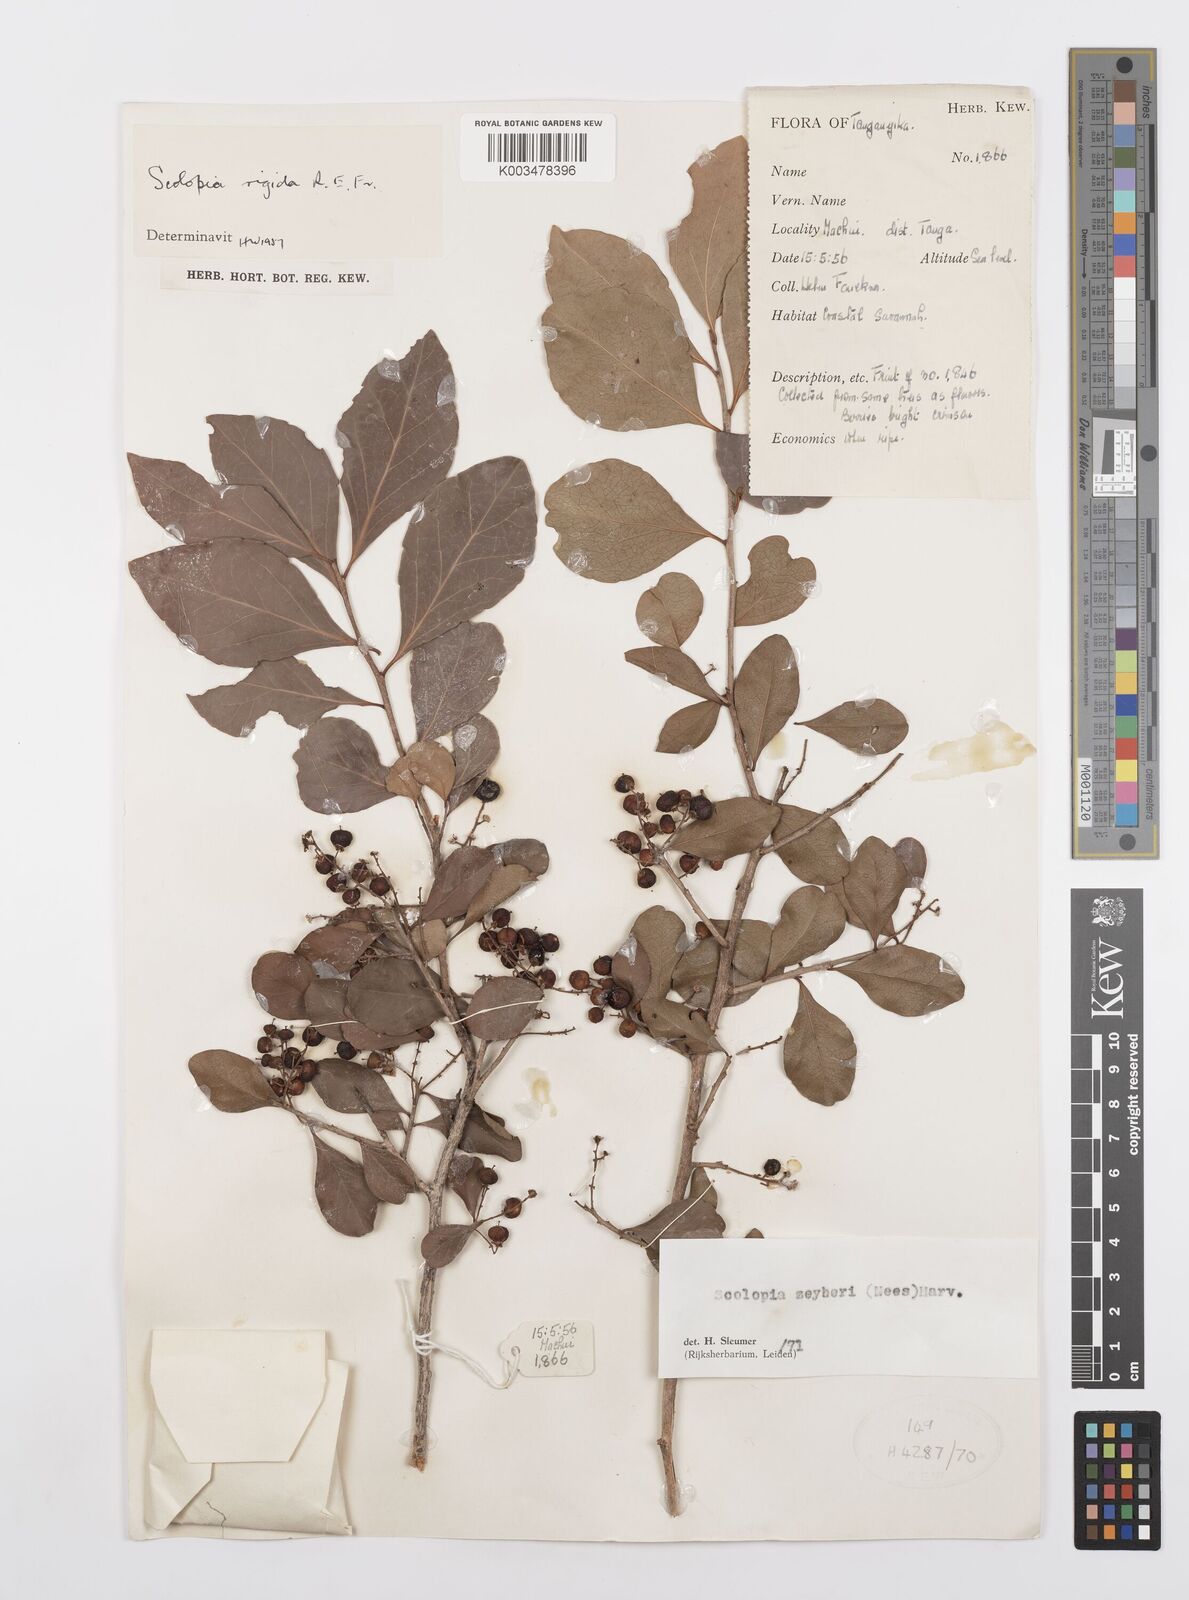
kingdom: Plantae
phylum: Tracheophyta
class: Magnoliopsida
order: Malpighiales
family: Salicaceae
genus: Scolopia
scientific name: Scolopia zeyheri
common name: Thorn pear
